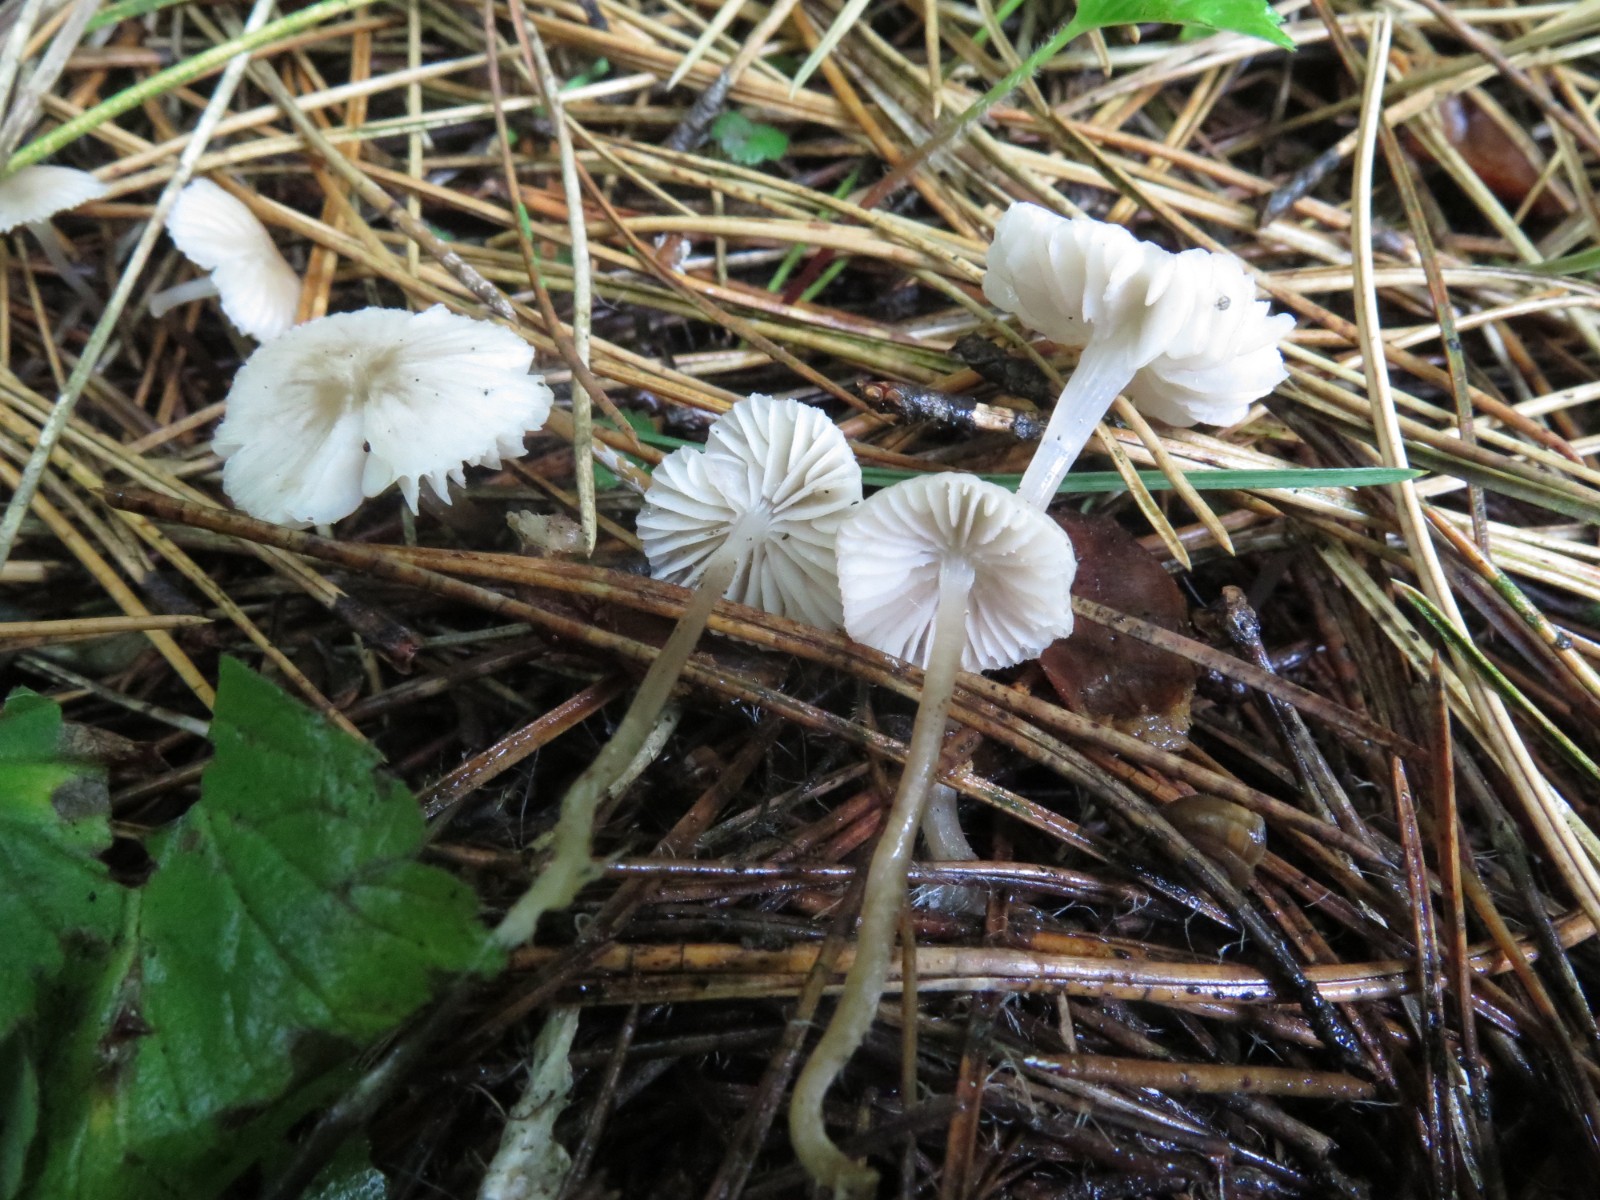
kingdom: Fungi
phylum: Basidiomycota
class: Agaricomycetes
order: Agaricales
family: Mycenaceae
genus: Mycena
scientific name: Mycena
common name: huesvamp
